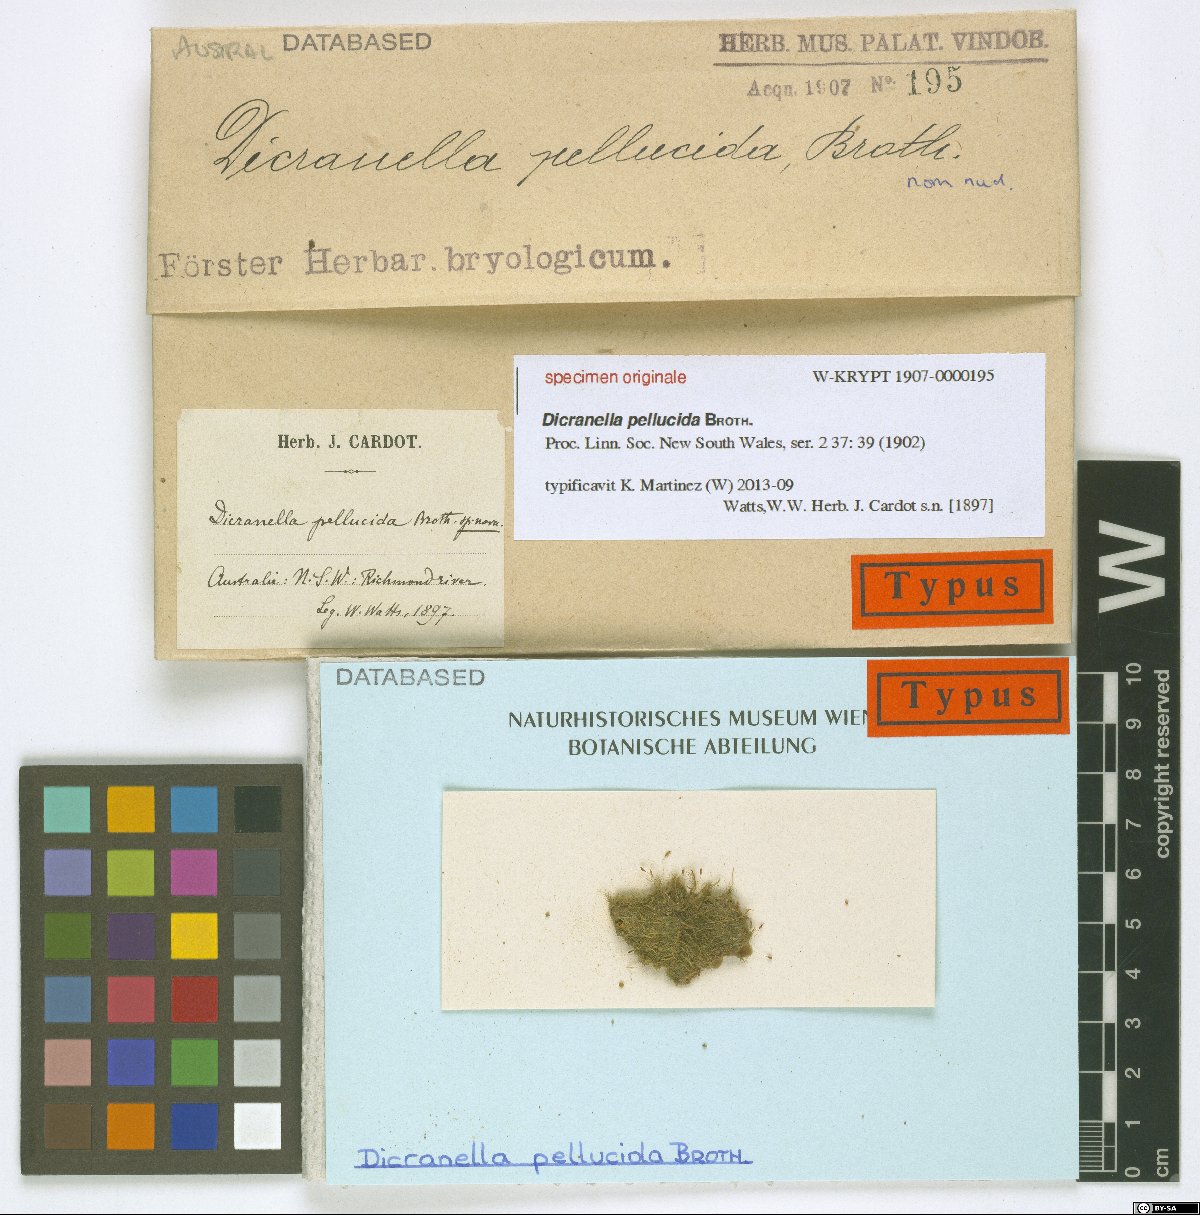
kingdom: Plantae
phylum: Bryophyta
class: Bryopsida
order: Dicranales
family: Dicranaceae
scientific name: Dicranaceae
